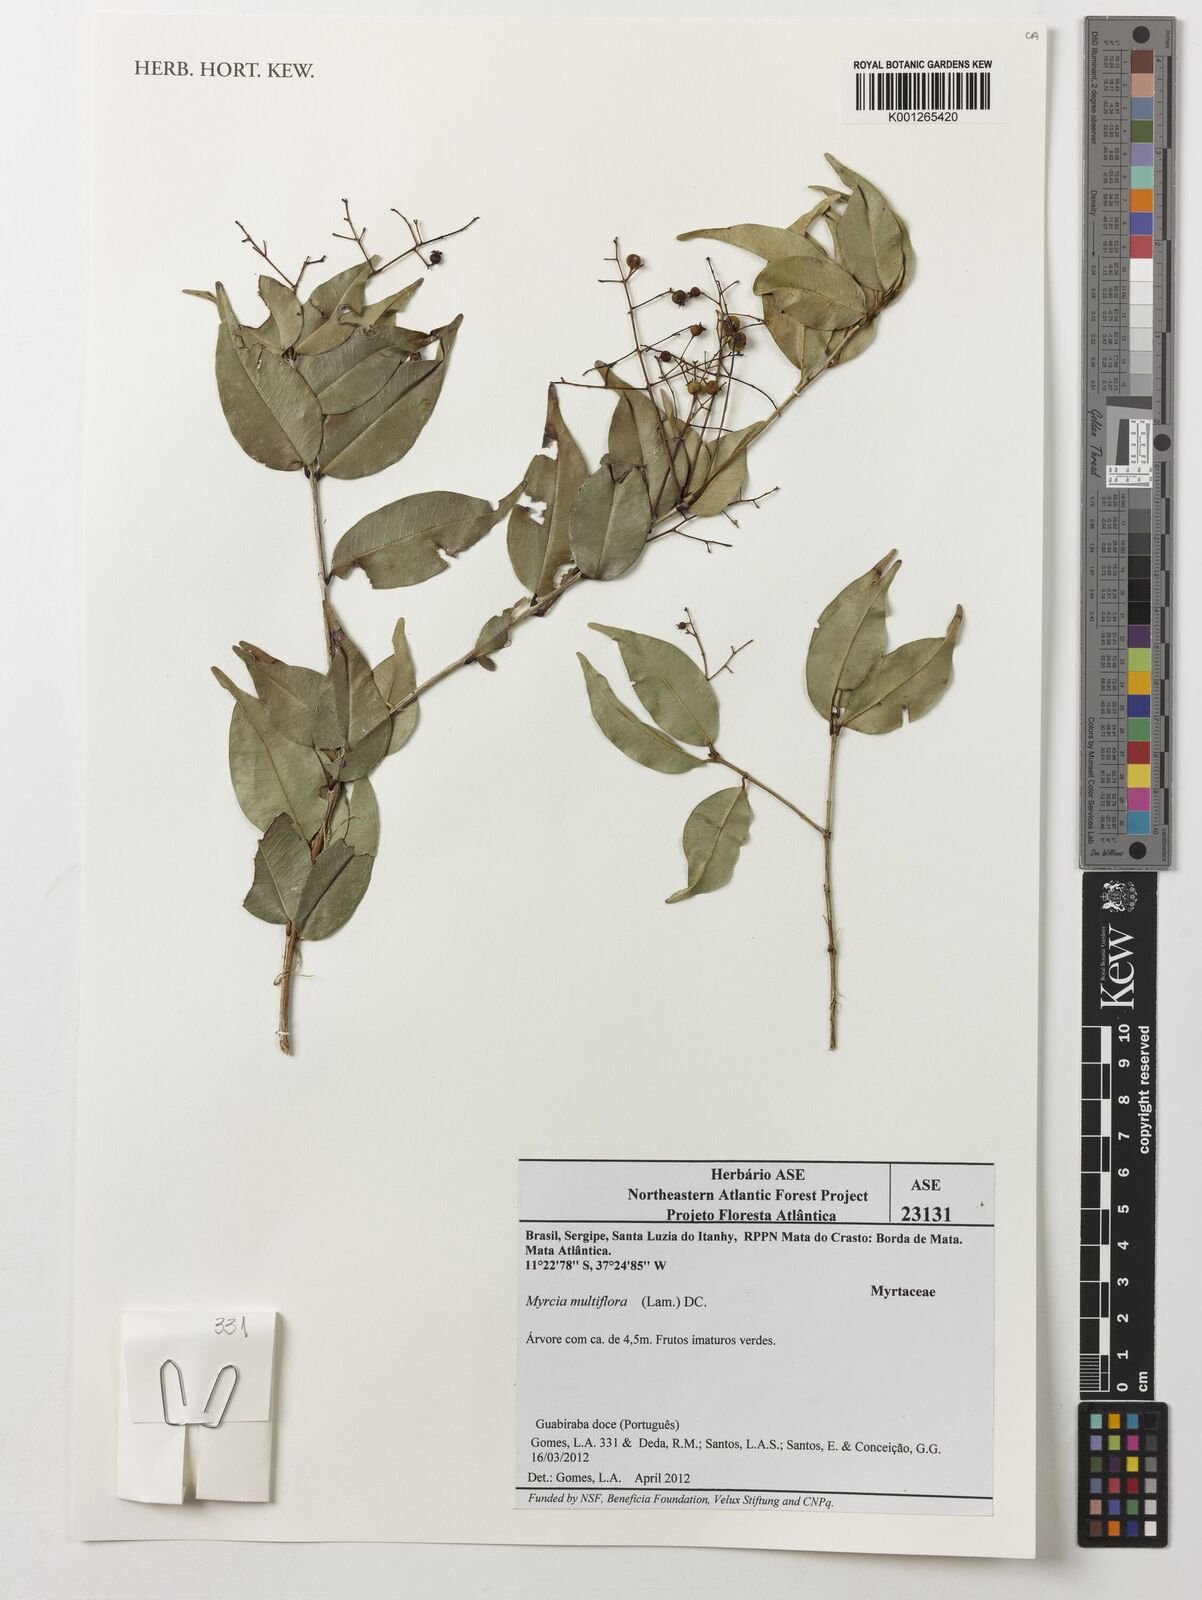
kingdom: Plantae
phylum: Tracheophyta
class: Magnoliopsida
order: Myrtales
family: Myrtaceae
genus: Myrcia
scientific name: Myrcia multiflora
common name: Pedra hume
